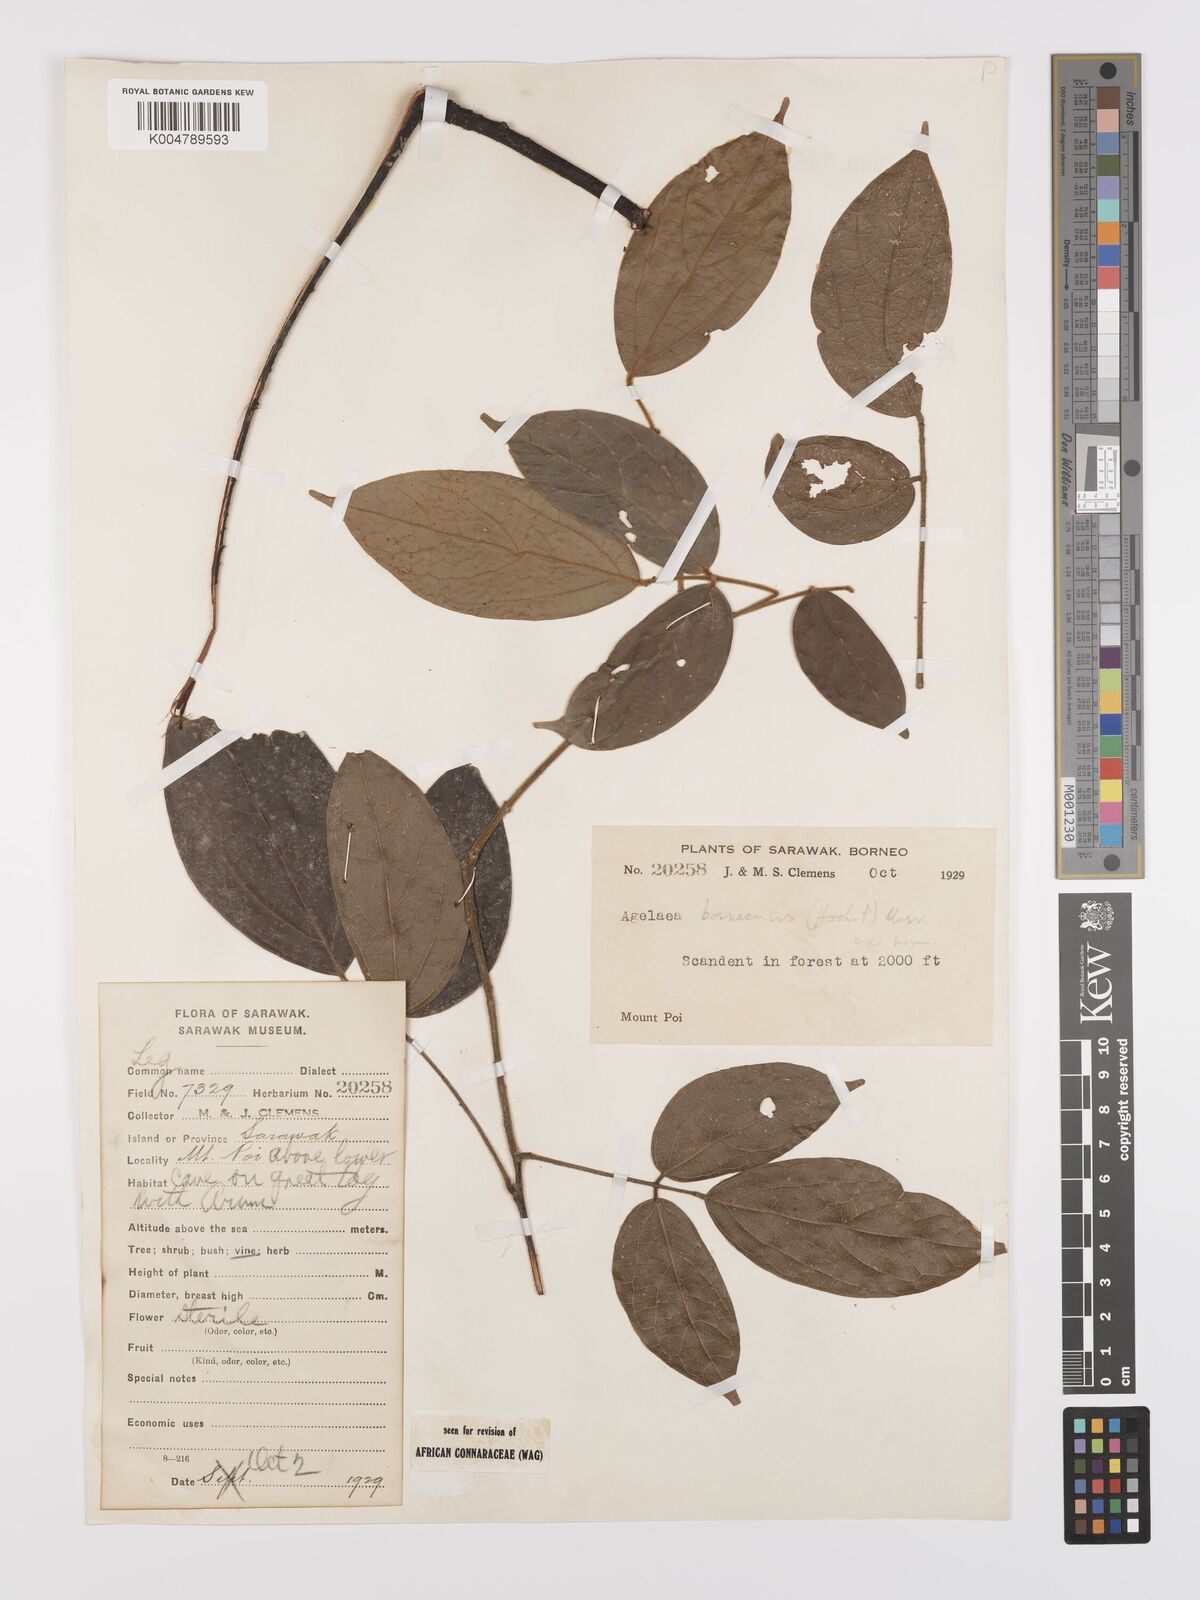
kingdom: Plantae
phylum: Tracheophyta
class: Magnoliopsida
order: Oxalidales
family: Connaraceae
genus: Agelaea
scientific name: Agelaea borneensis
